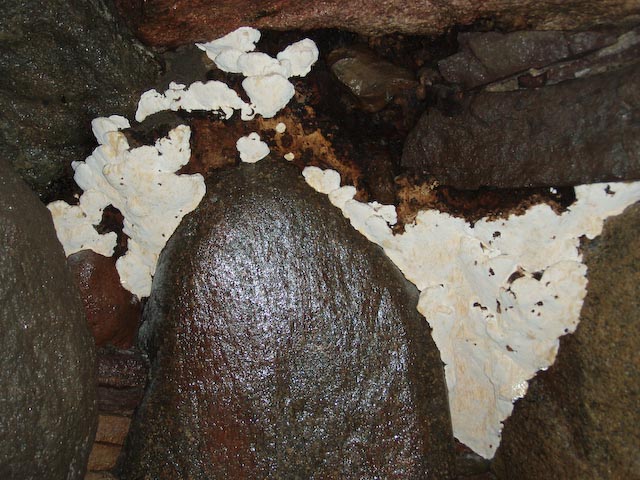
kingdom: Fungi
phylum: Basidiomycota
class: Agaricomycetes
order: Russulales
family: Bondarzewiaceae
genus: Heterobasidion
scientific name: Heterobasidion annosum
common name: almindelig rodfordærver
